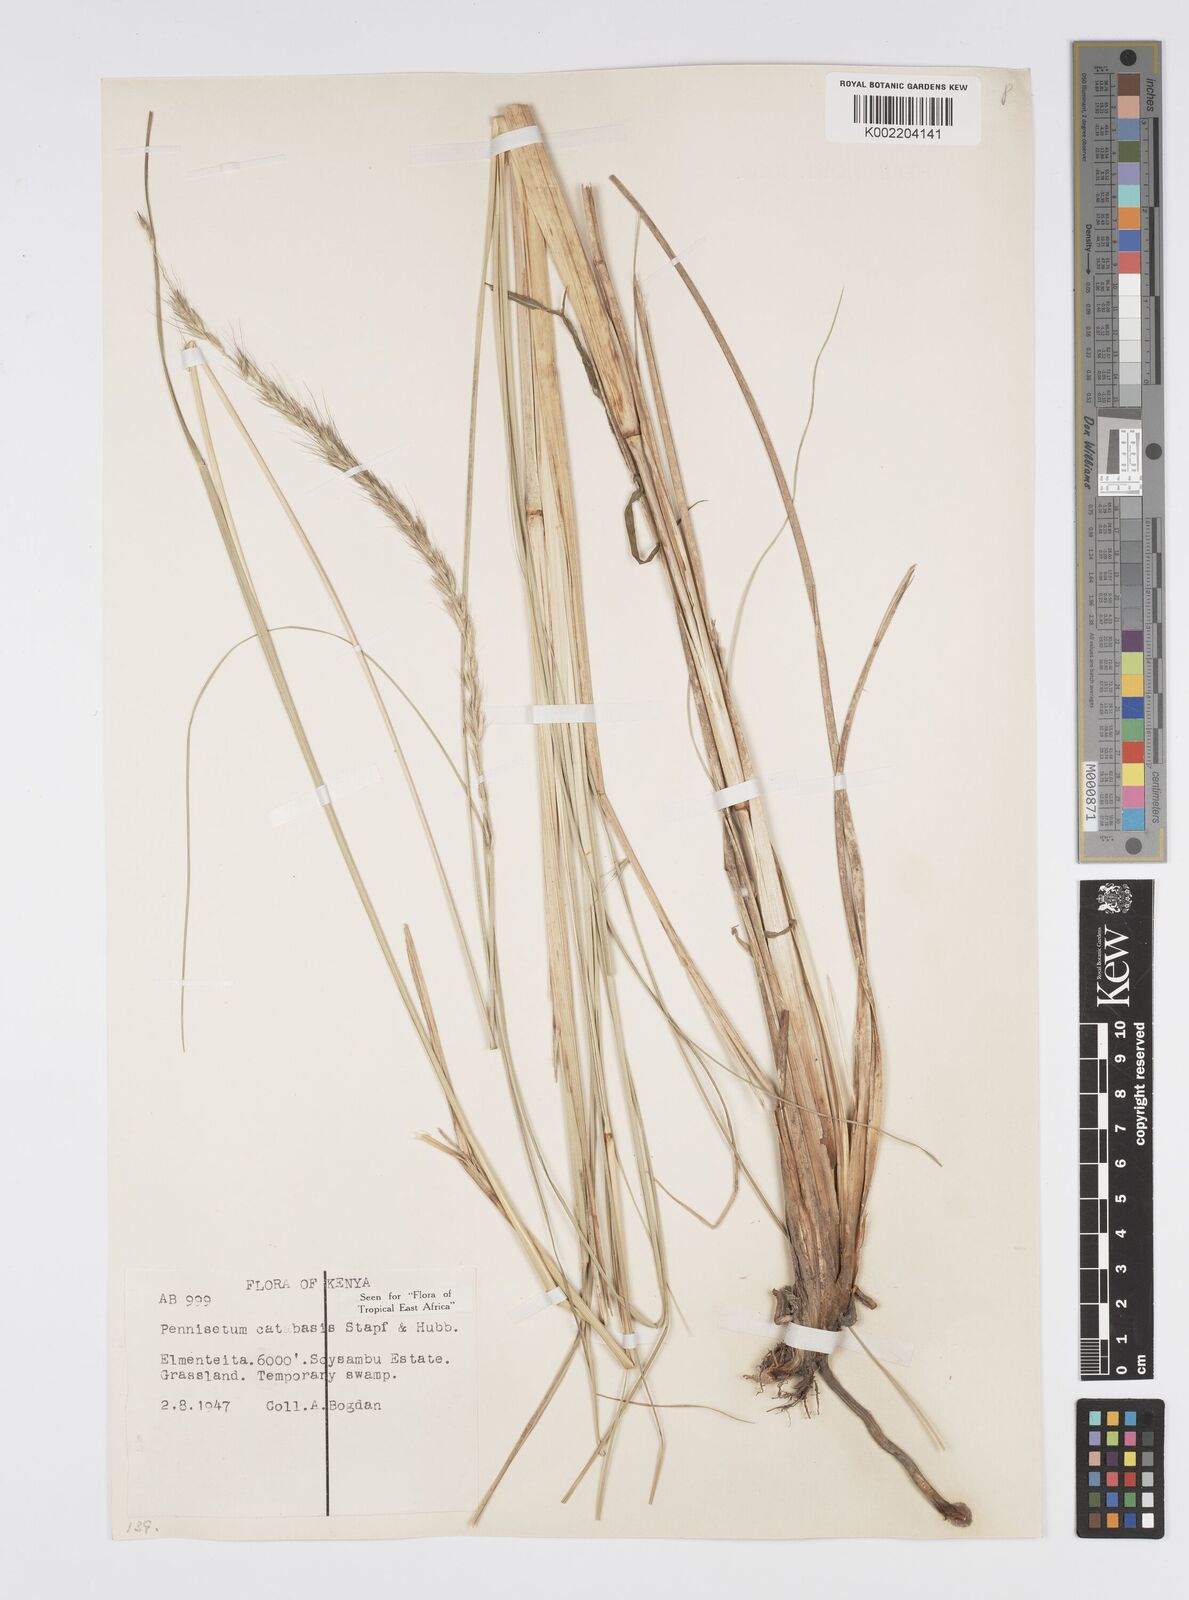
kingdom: Plantae
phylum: Tracheophyta
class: Liliopsida
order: Poales
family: Poaceae
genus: Cenchrus
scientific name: Cenchrus Pennisetum spec
